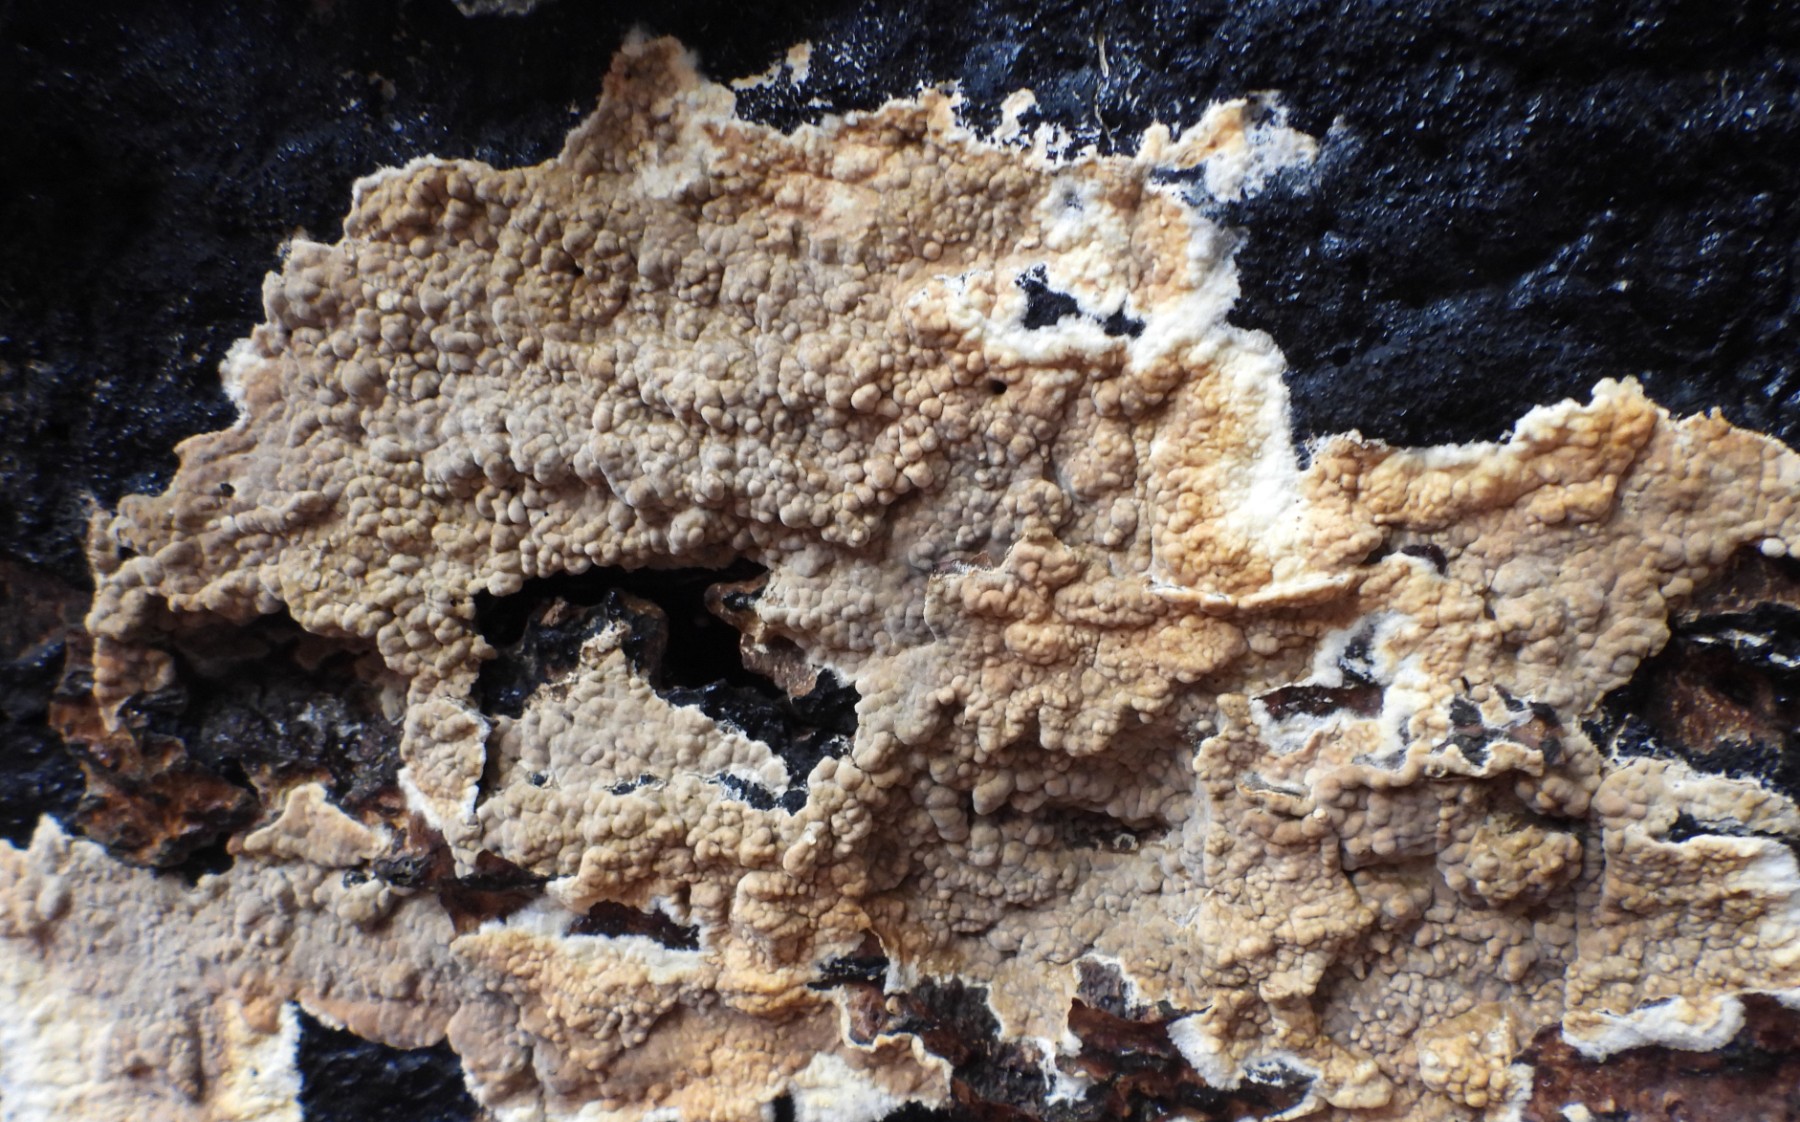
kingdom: Fungi
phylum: Basidiomycota
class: Agaricomycetes
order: Boletales
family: Coniophoraceae
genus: Coniophora
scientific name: Coniophora puteana
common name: gul tømmersvamp
